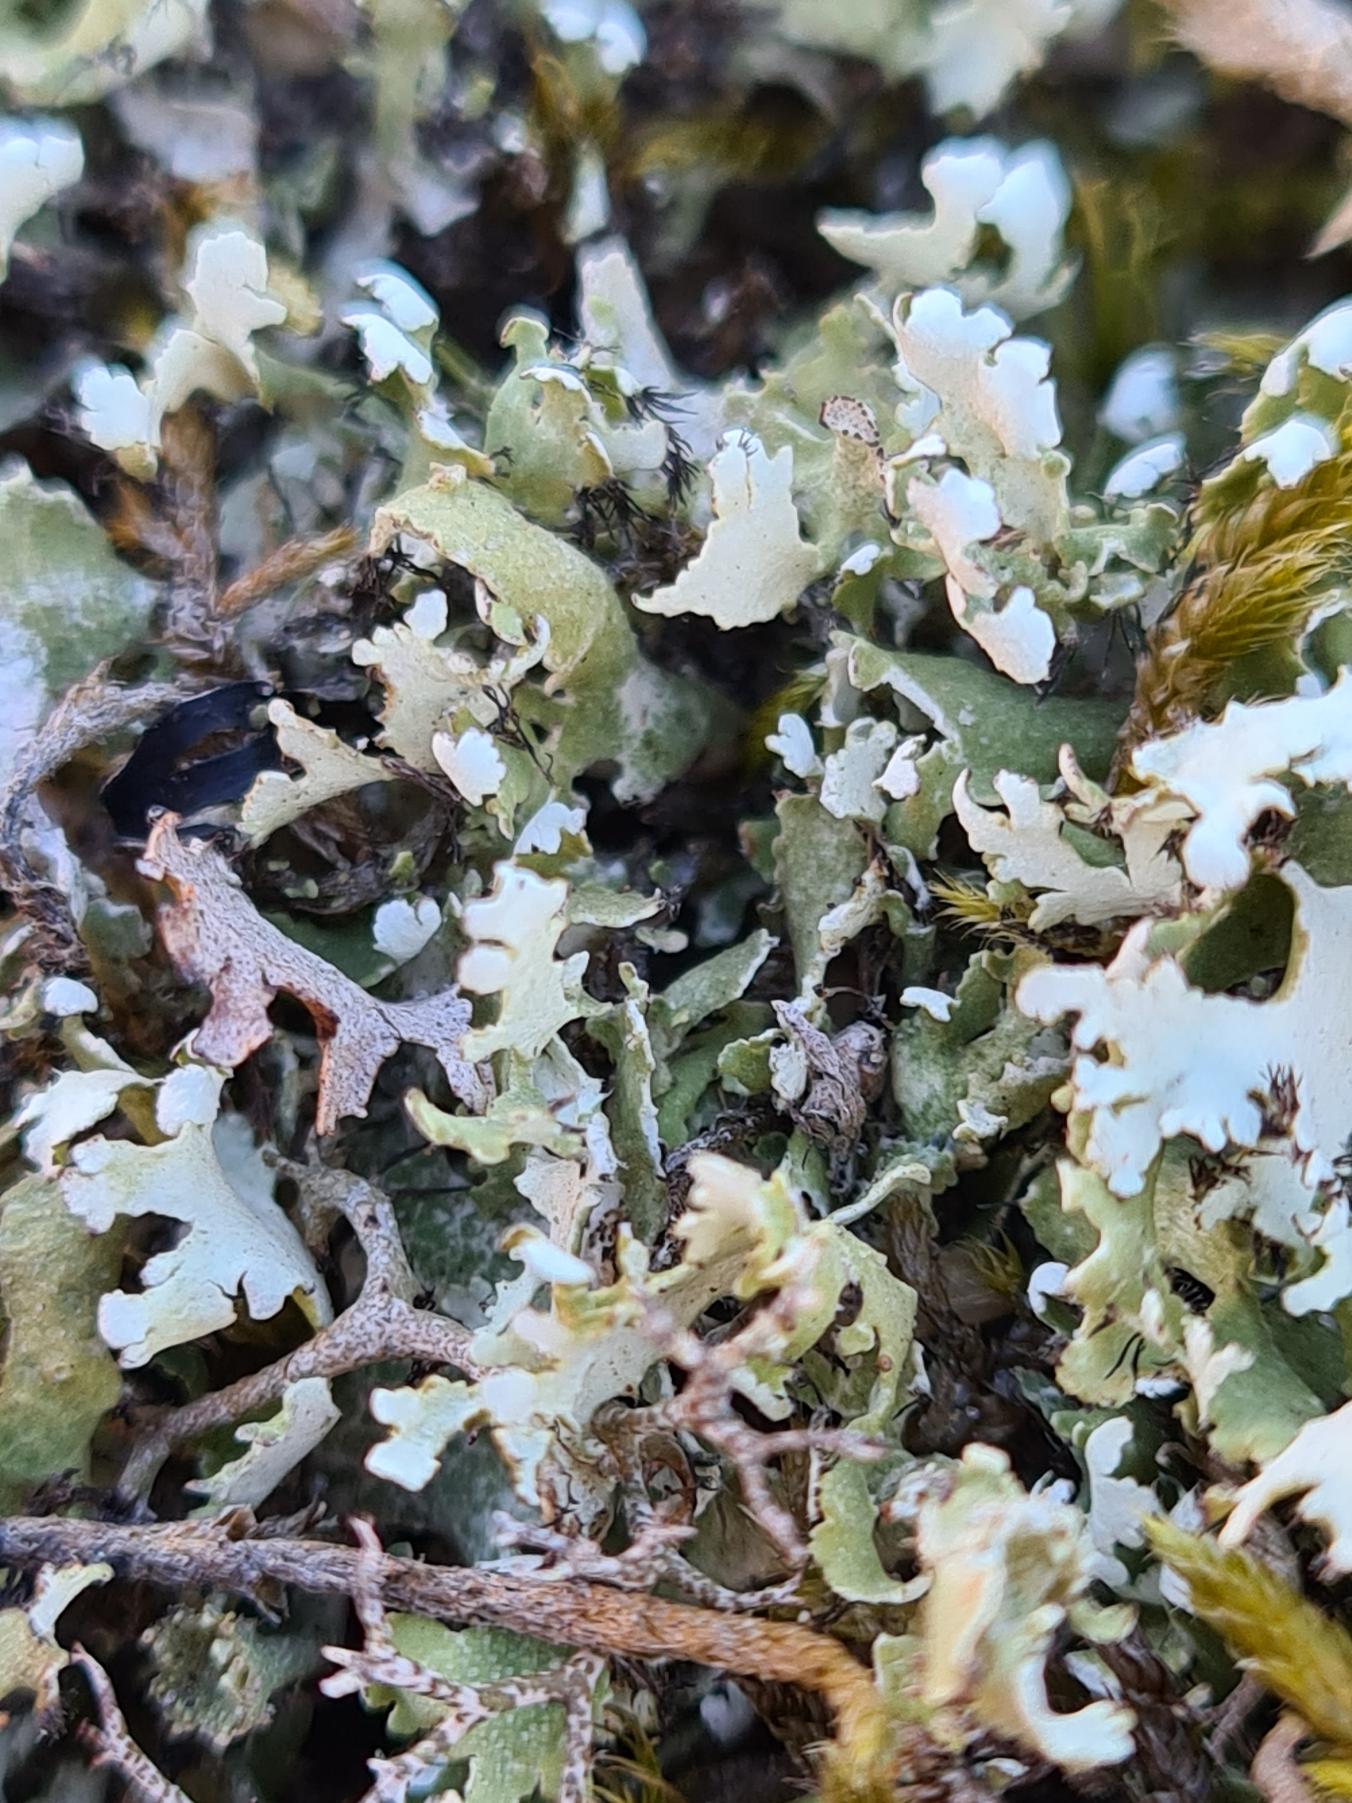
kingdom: Fungi
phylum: Ascomycota
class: Lecanoromycetes
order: Lecanorales
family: Cladoniaceae
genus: Cladonia
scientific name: Cladonia foliacea
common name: Fliget bægerlav
